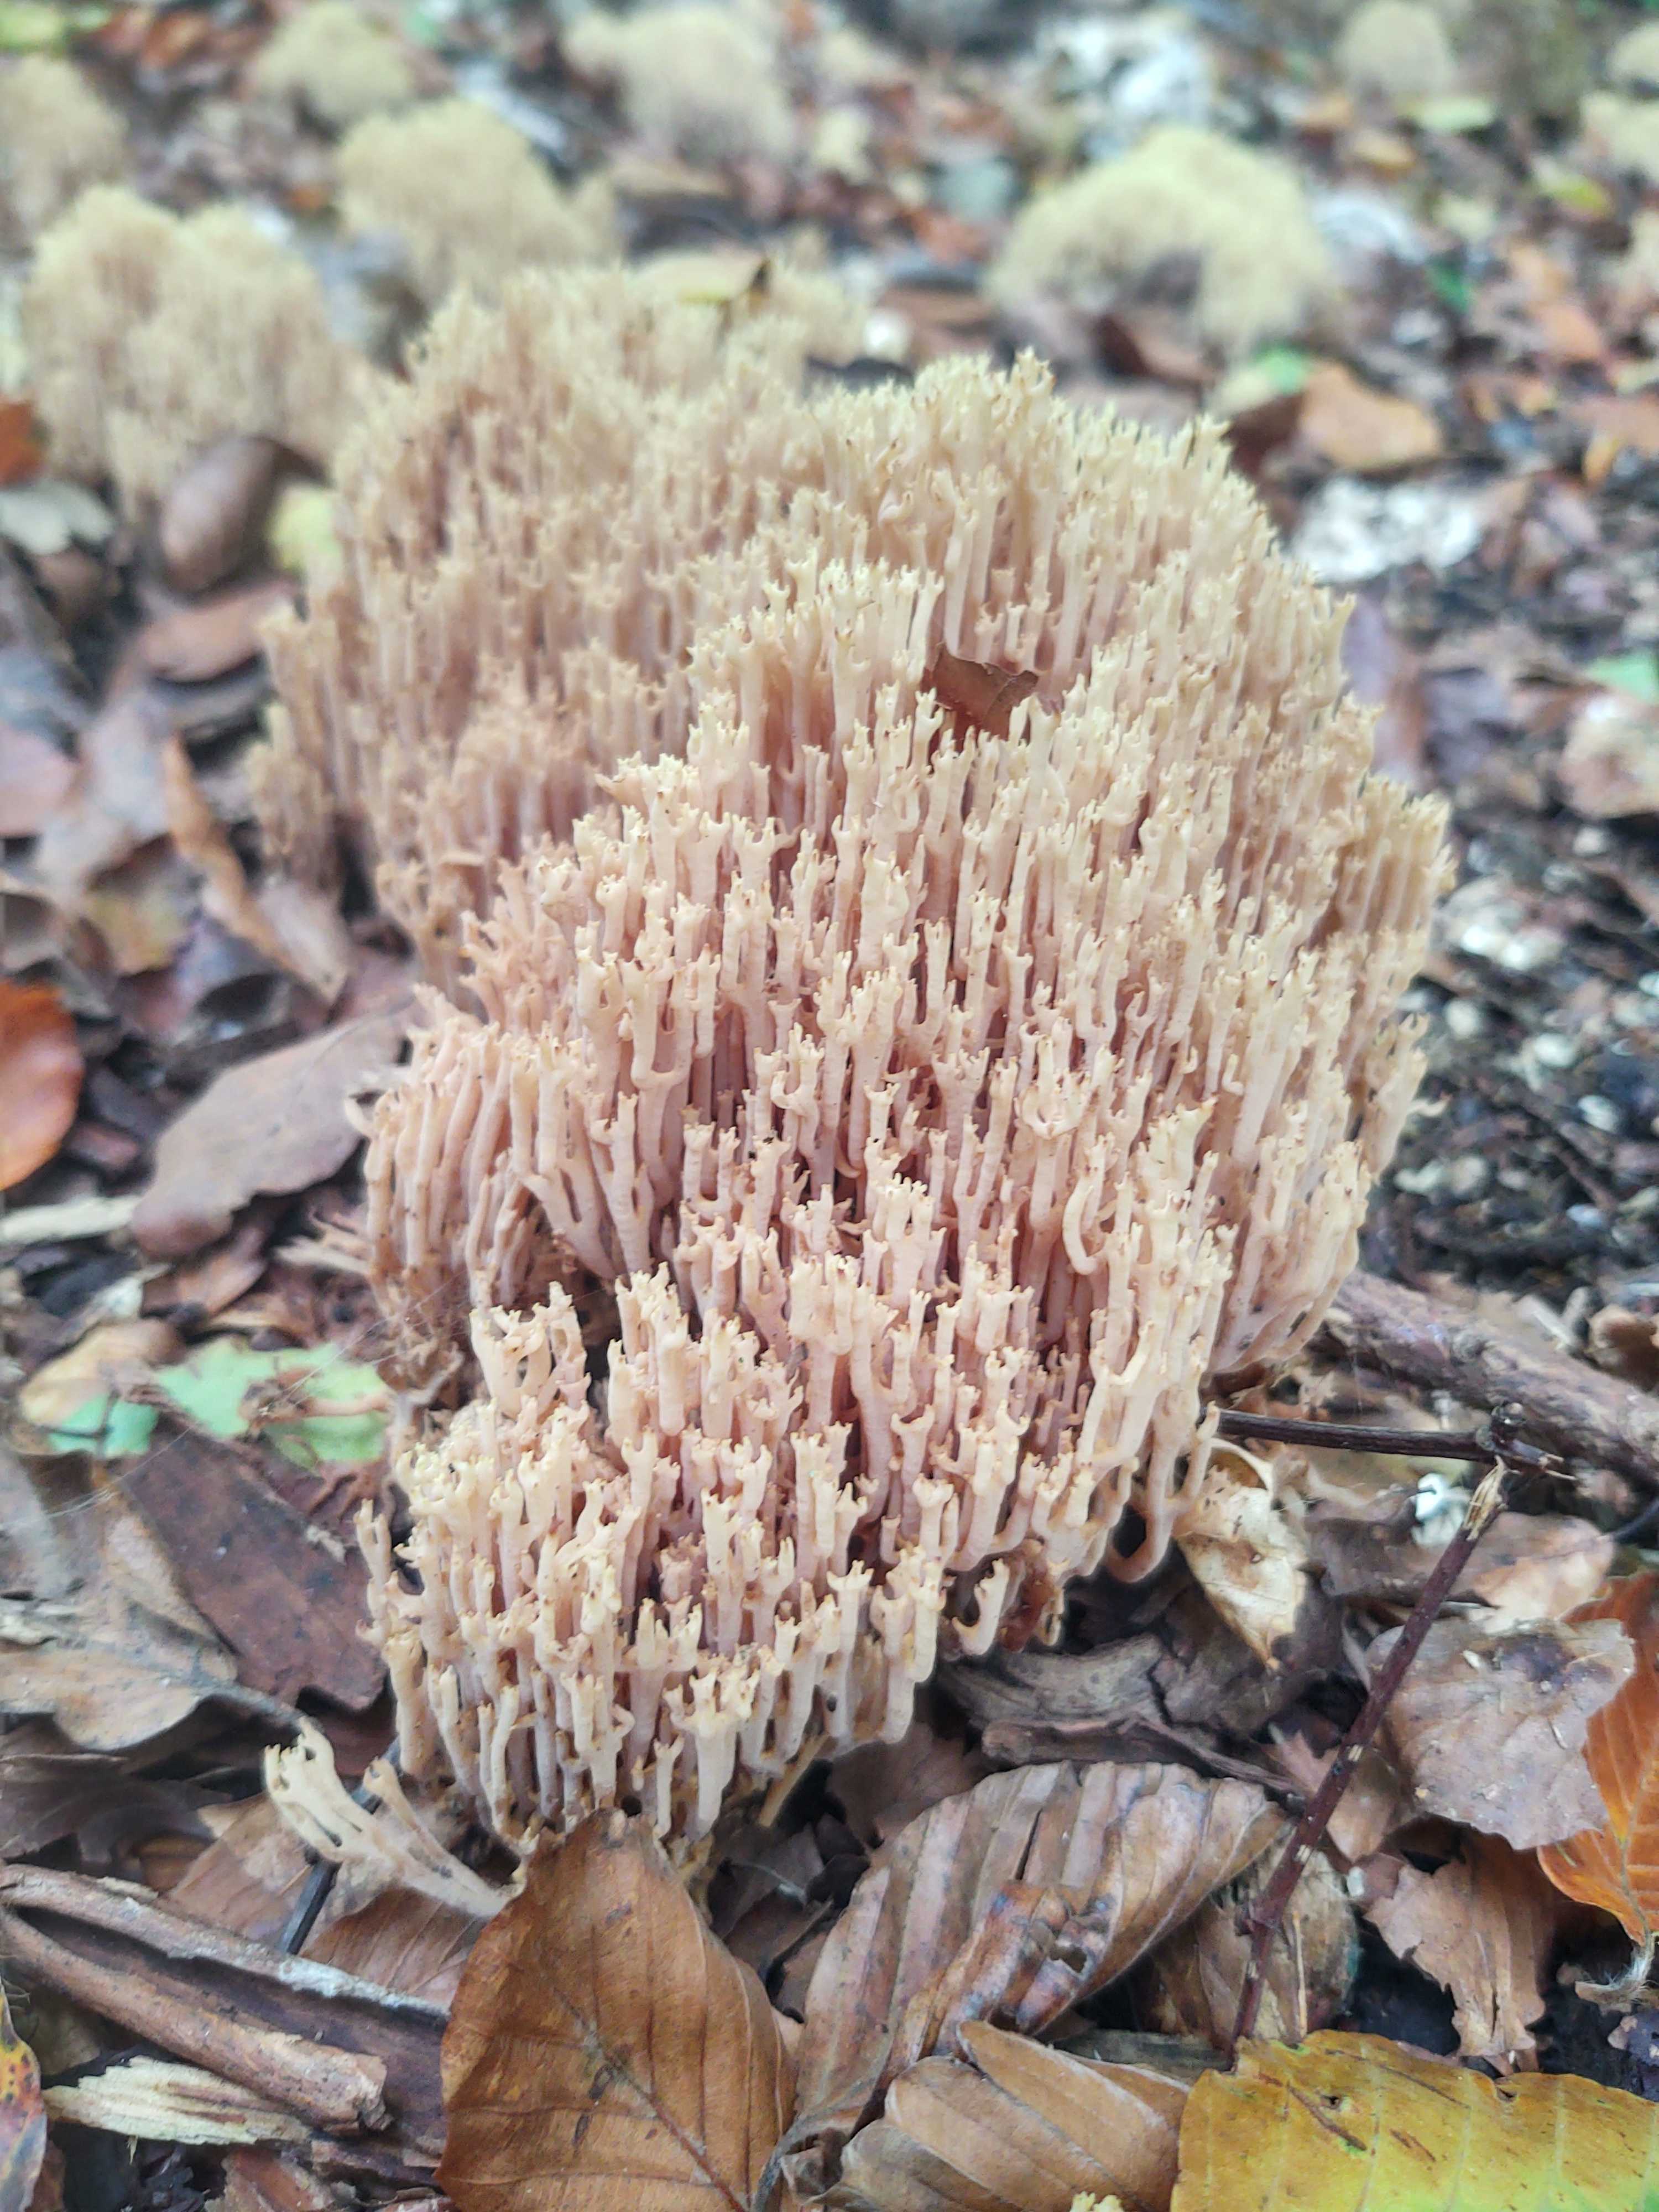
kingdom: Fungi
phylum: Basidiomycota
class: Agaricomycetes
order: Gomphales
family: Gomphaceae
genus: Ramaria
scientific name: Ramaria stricta
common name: rank koralsvamp
